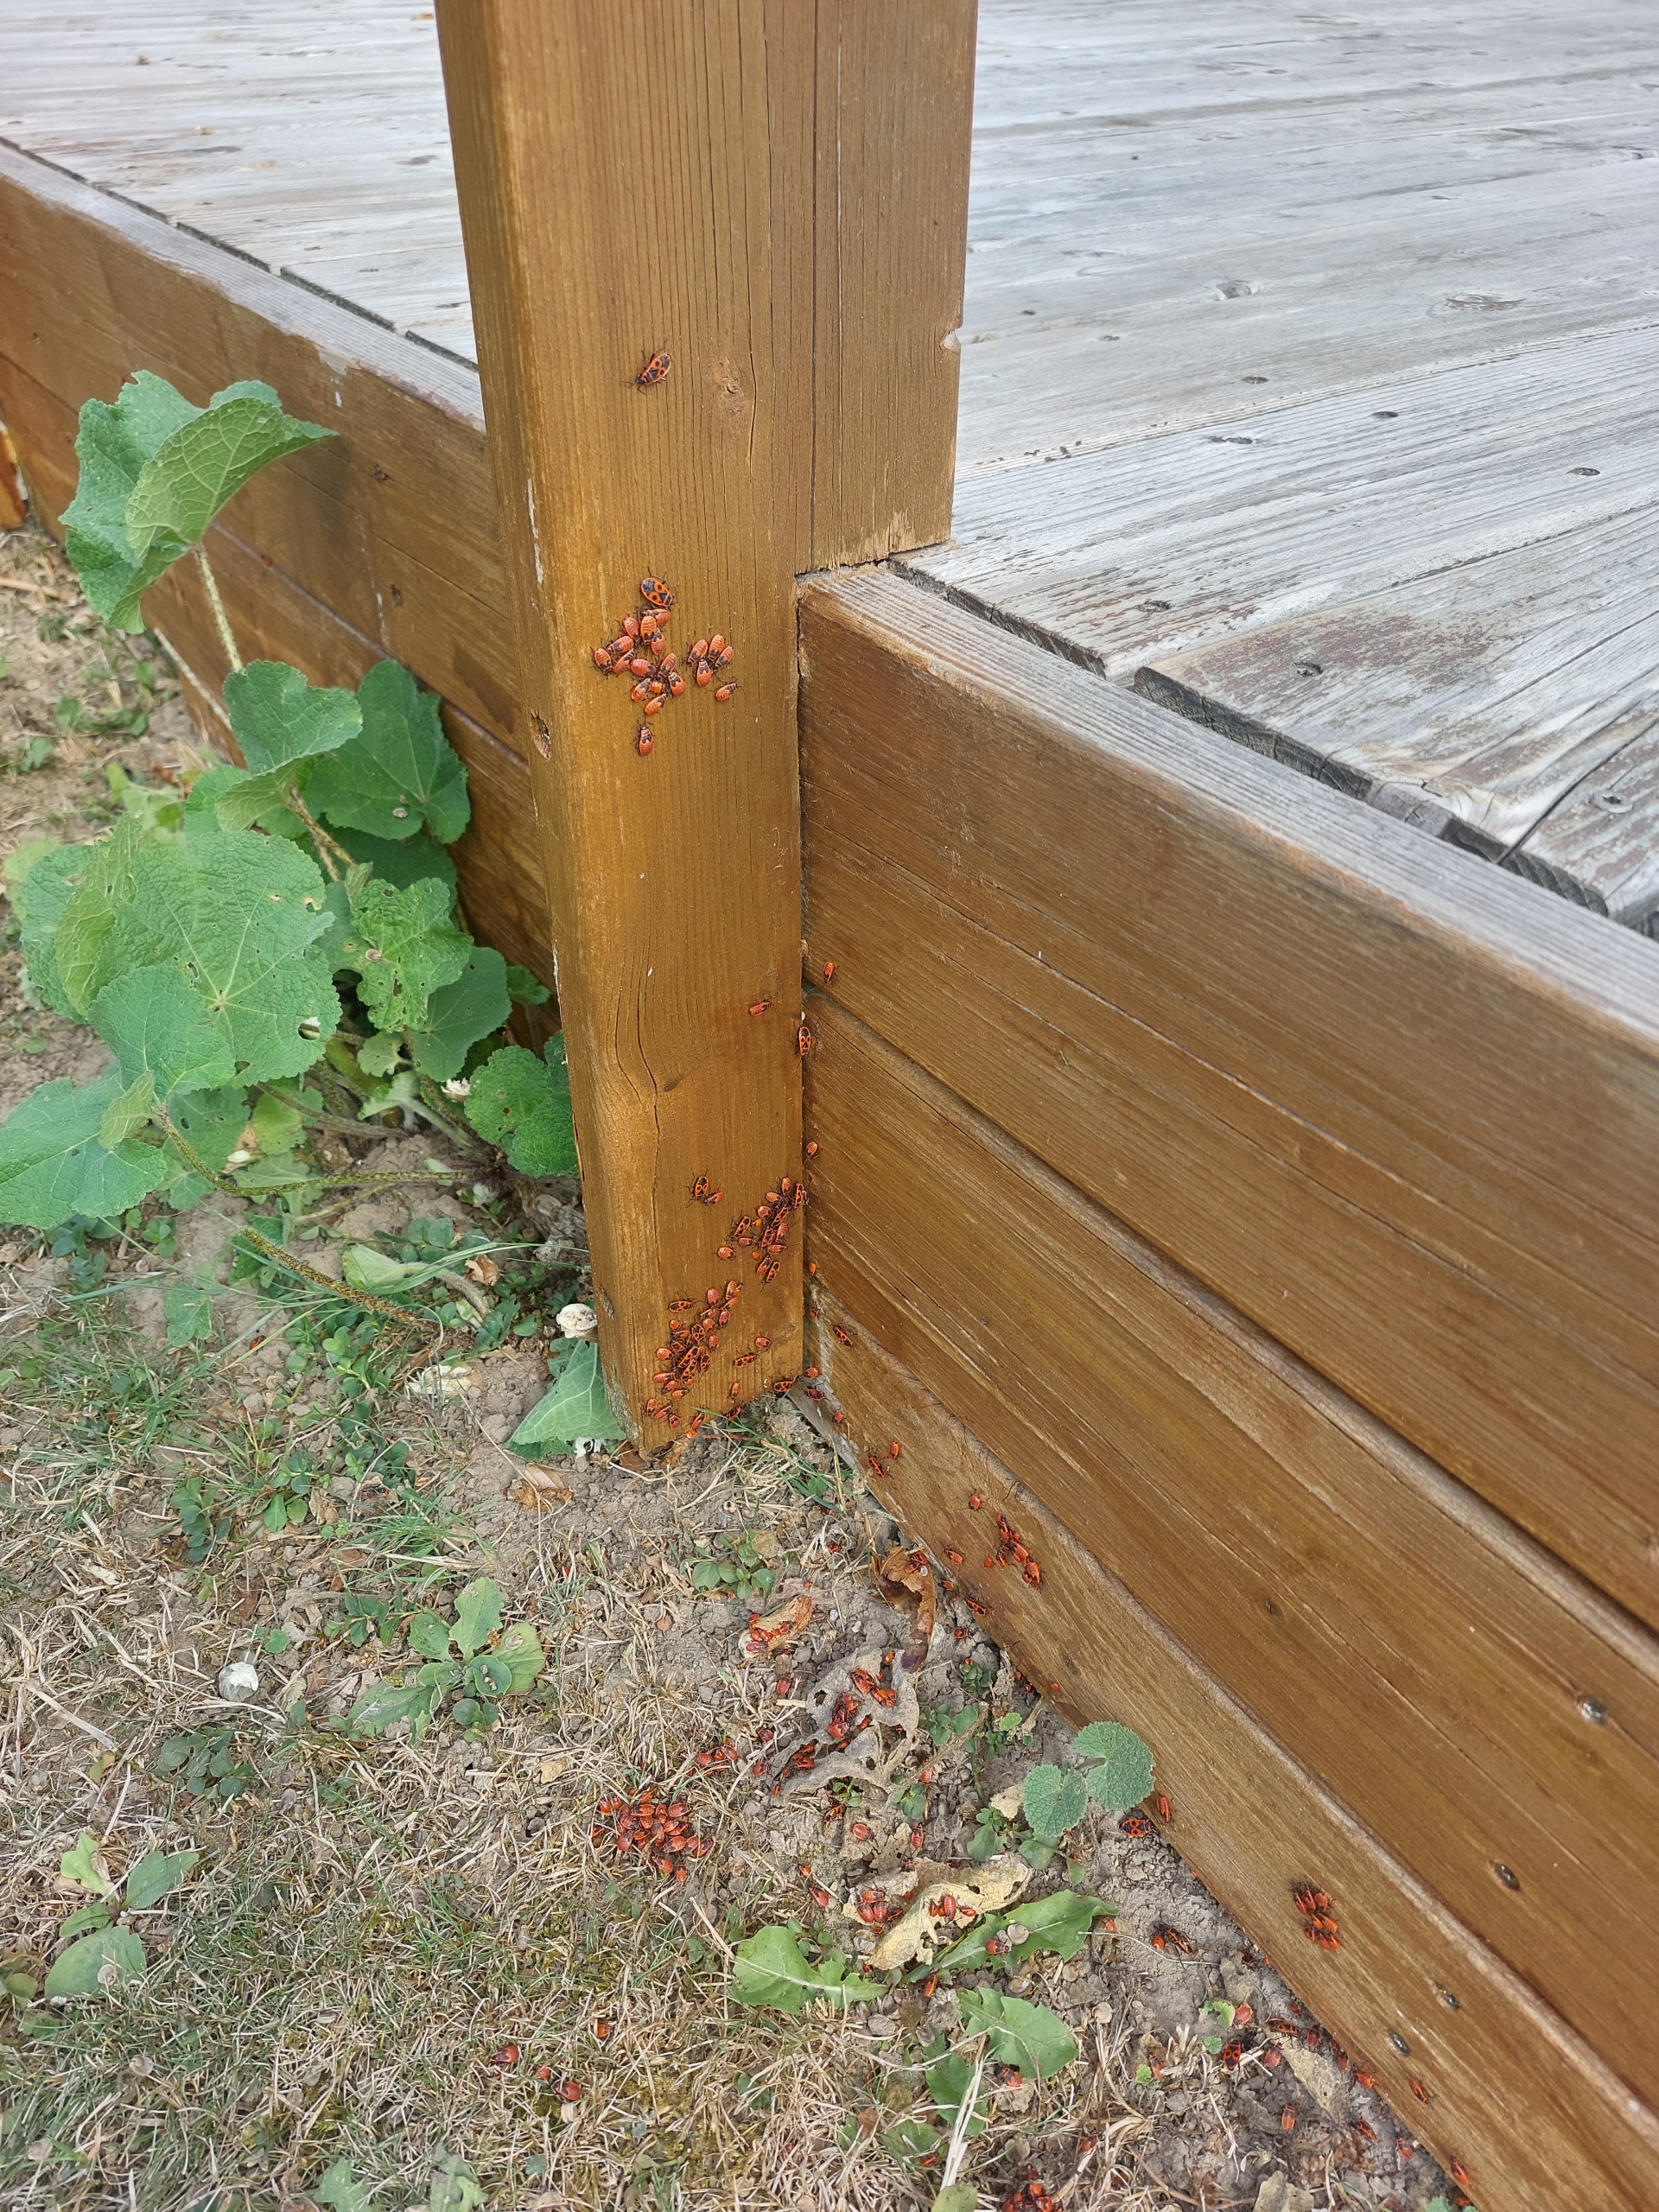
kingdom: Animalia
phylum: Arthropoda
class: Insecta
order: Hemiptera
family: Pyrrhocoridae
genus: Pyrrhocoris
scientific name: Pyrrhocoris apterus
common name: Ildtæge
